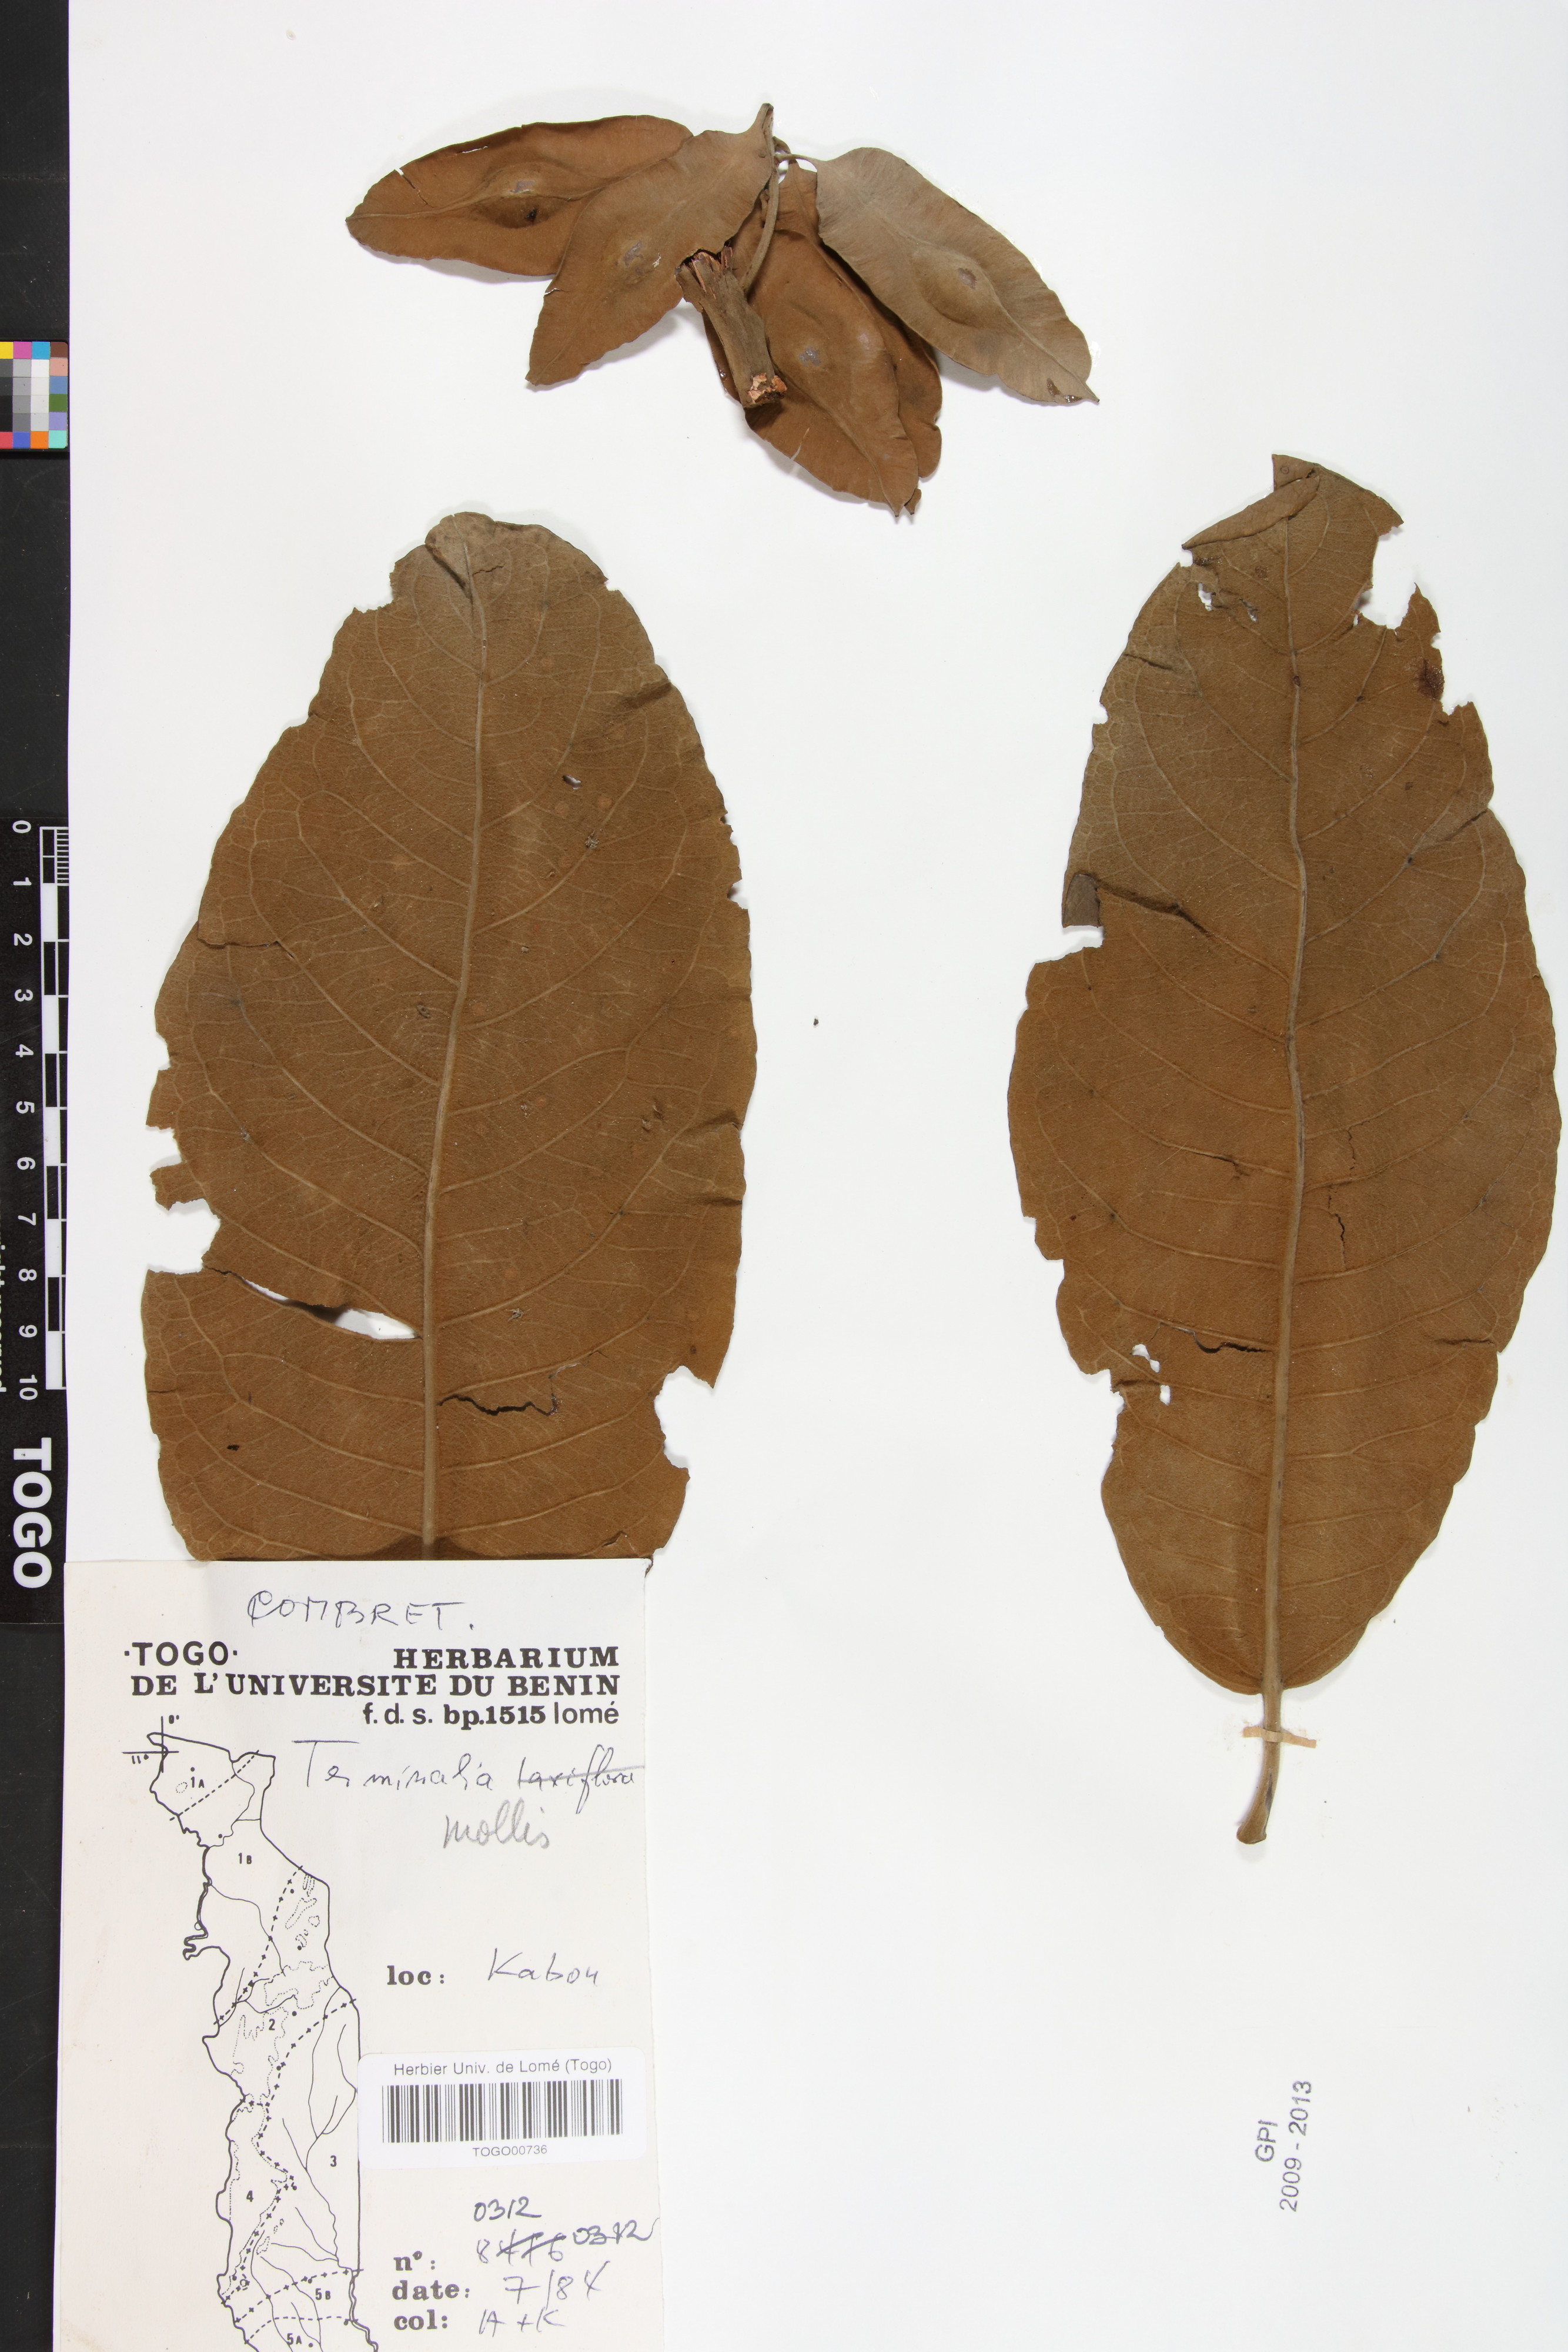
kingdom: Plantae
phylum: Tracheophyta
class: Magnoliopsida
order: Myrtales
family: Combretaceae
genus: Terminalia
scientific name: Terminalia mollis
